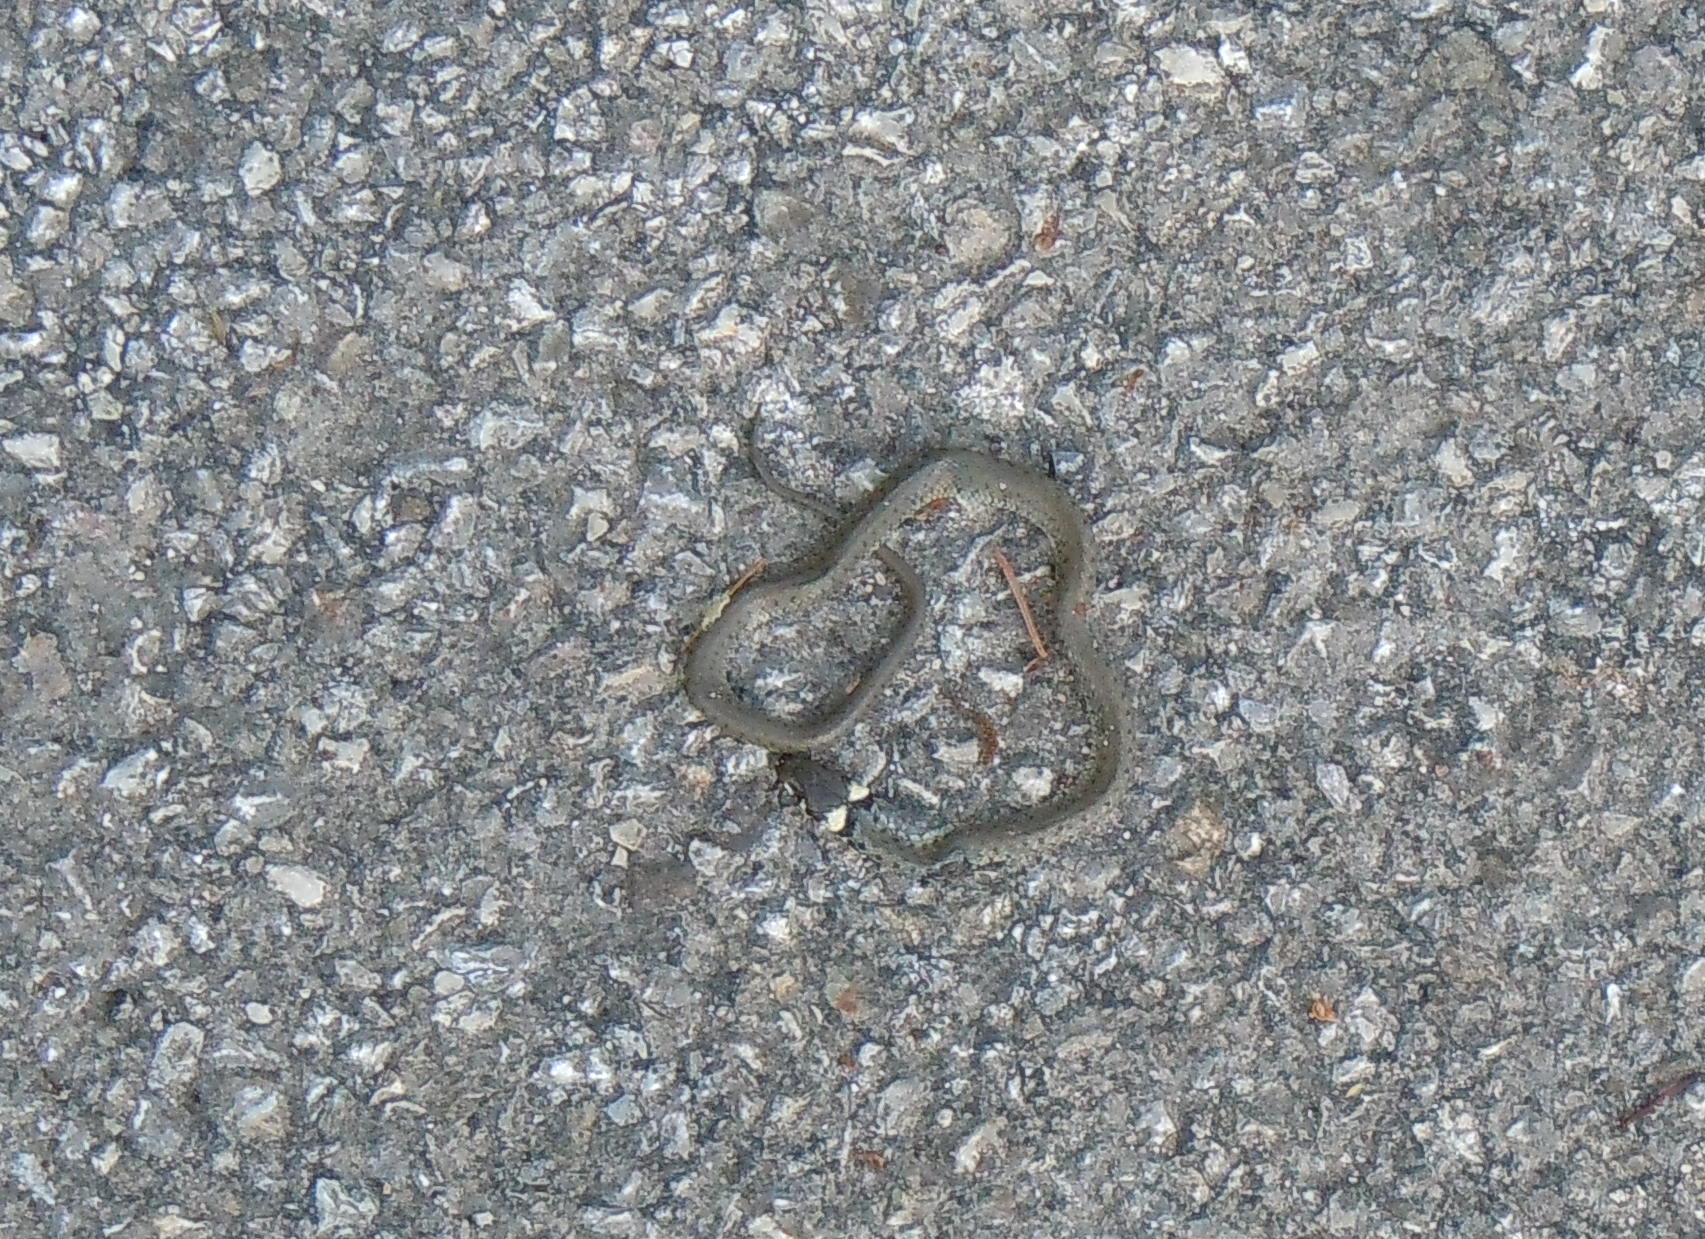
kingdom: Animalia
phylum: Chordata
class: Squamata
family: Colubridae
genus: Natrix
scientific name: Natrix natrix
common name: Grass snake
